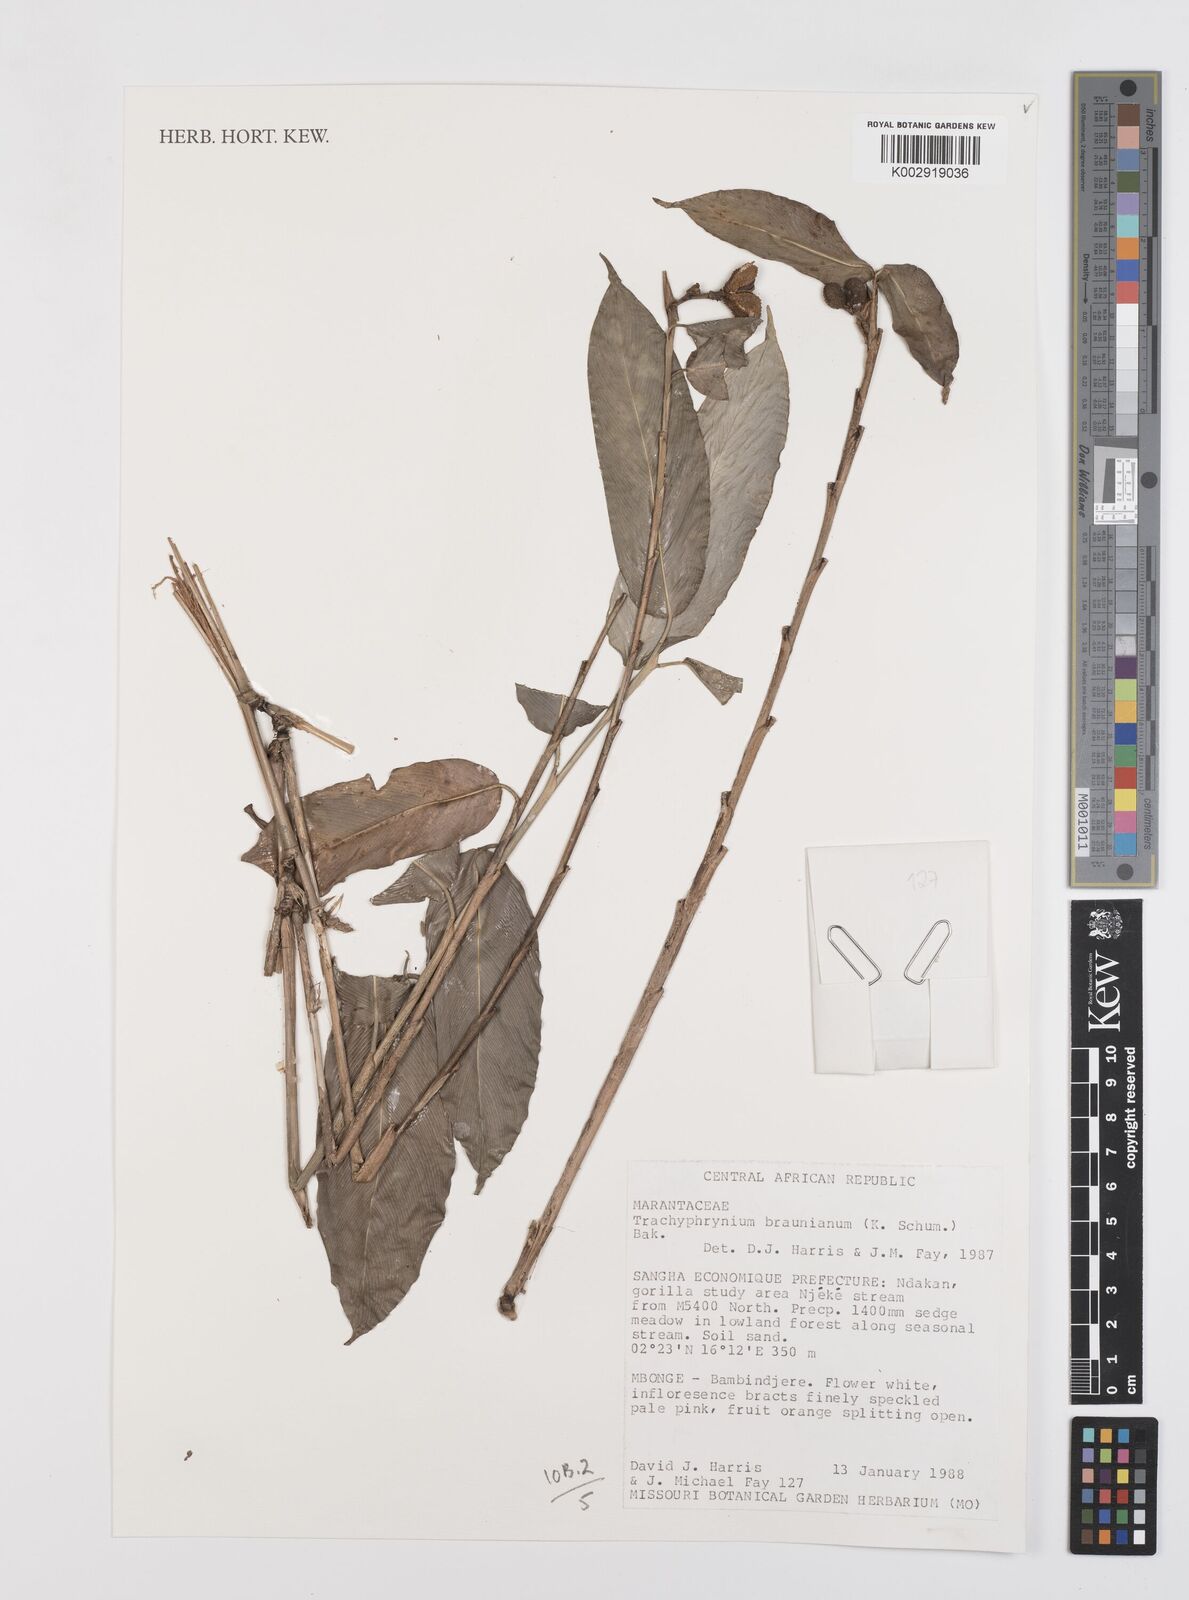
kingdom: Plantae
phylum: Tracheophyta
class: Liliopsida
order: Zingiberales
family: Marantaceae
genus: Trachyphrynium
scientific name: Trachyphrynium braunianum
